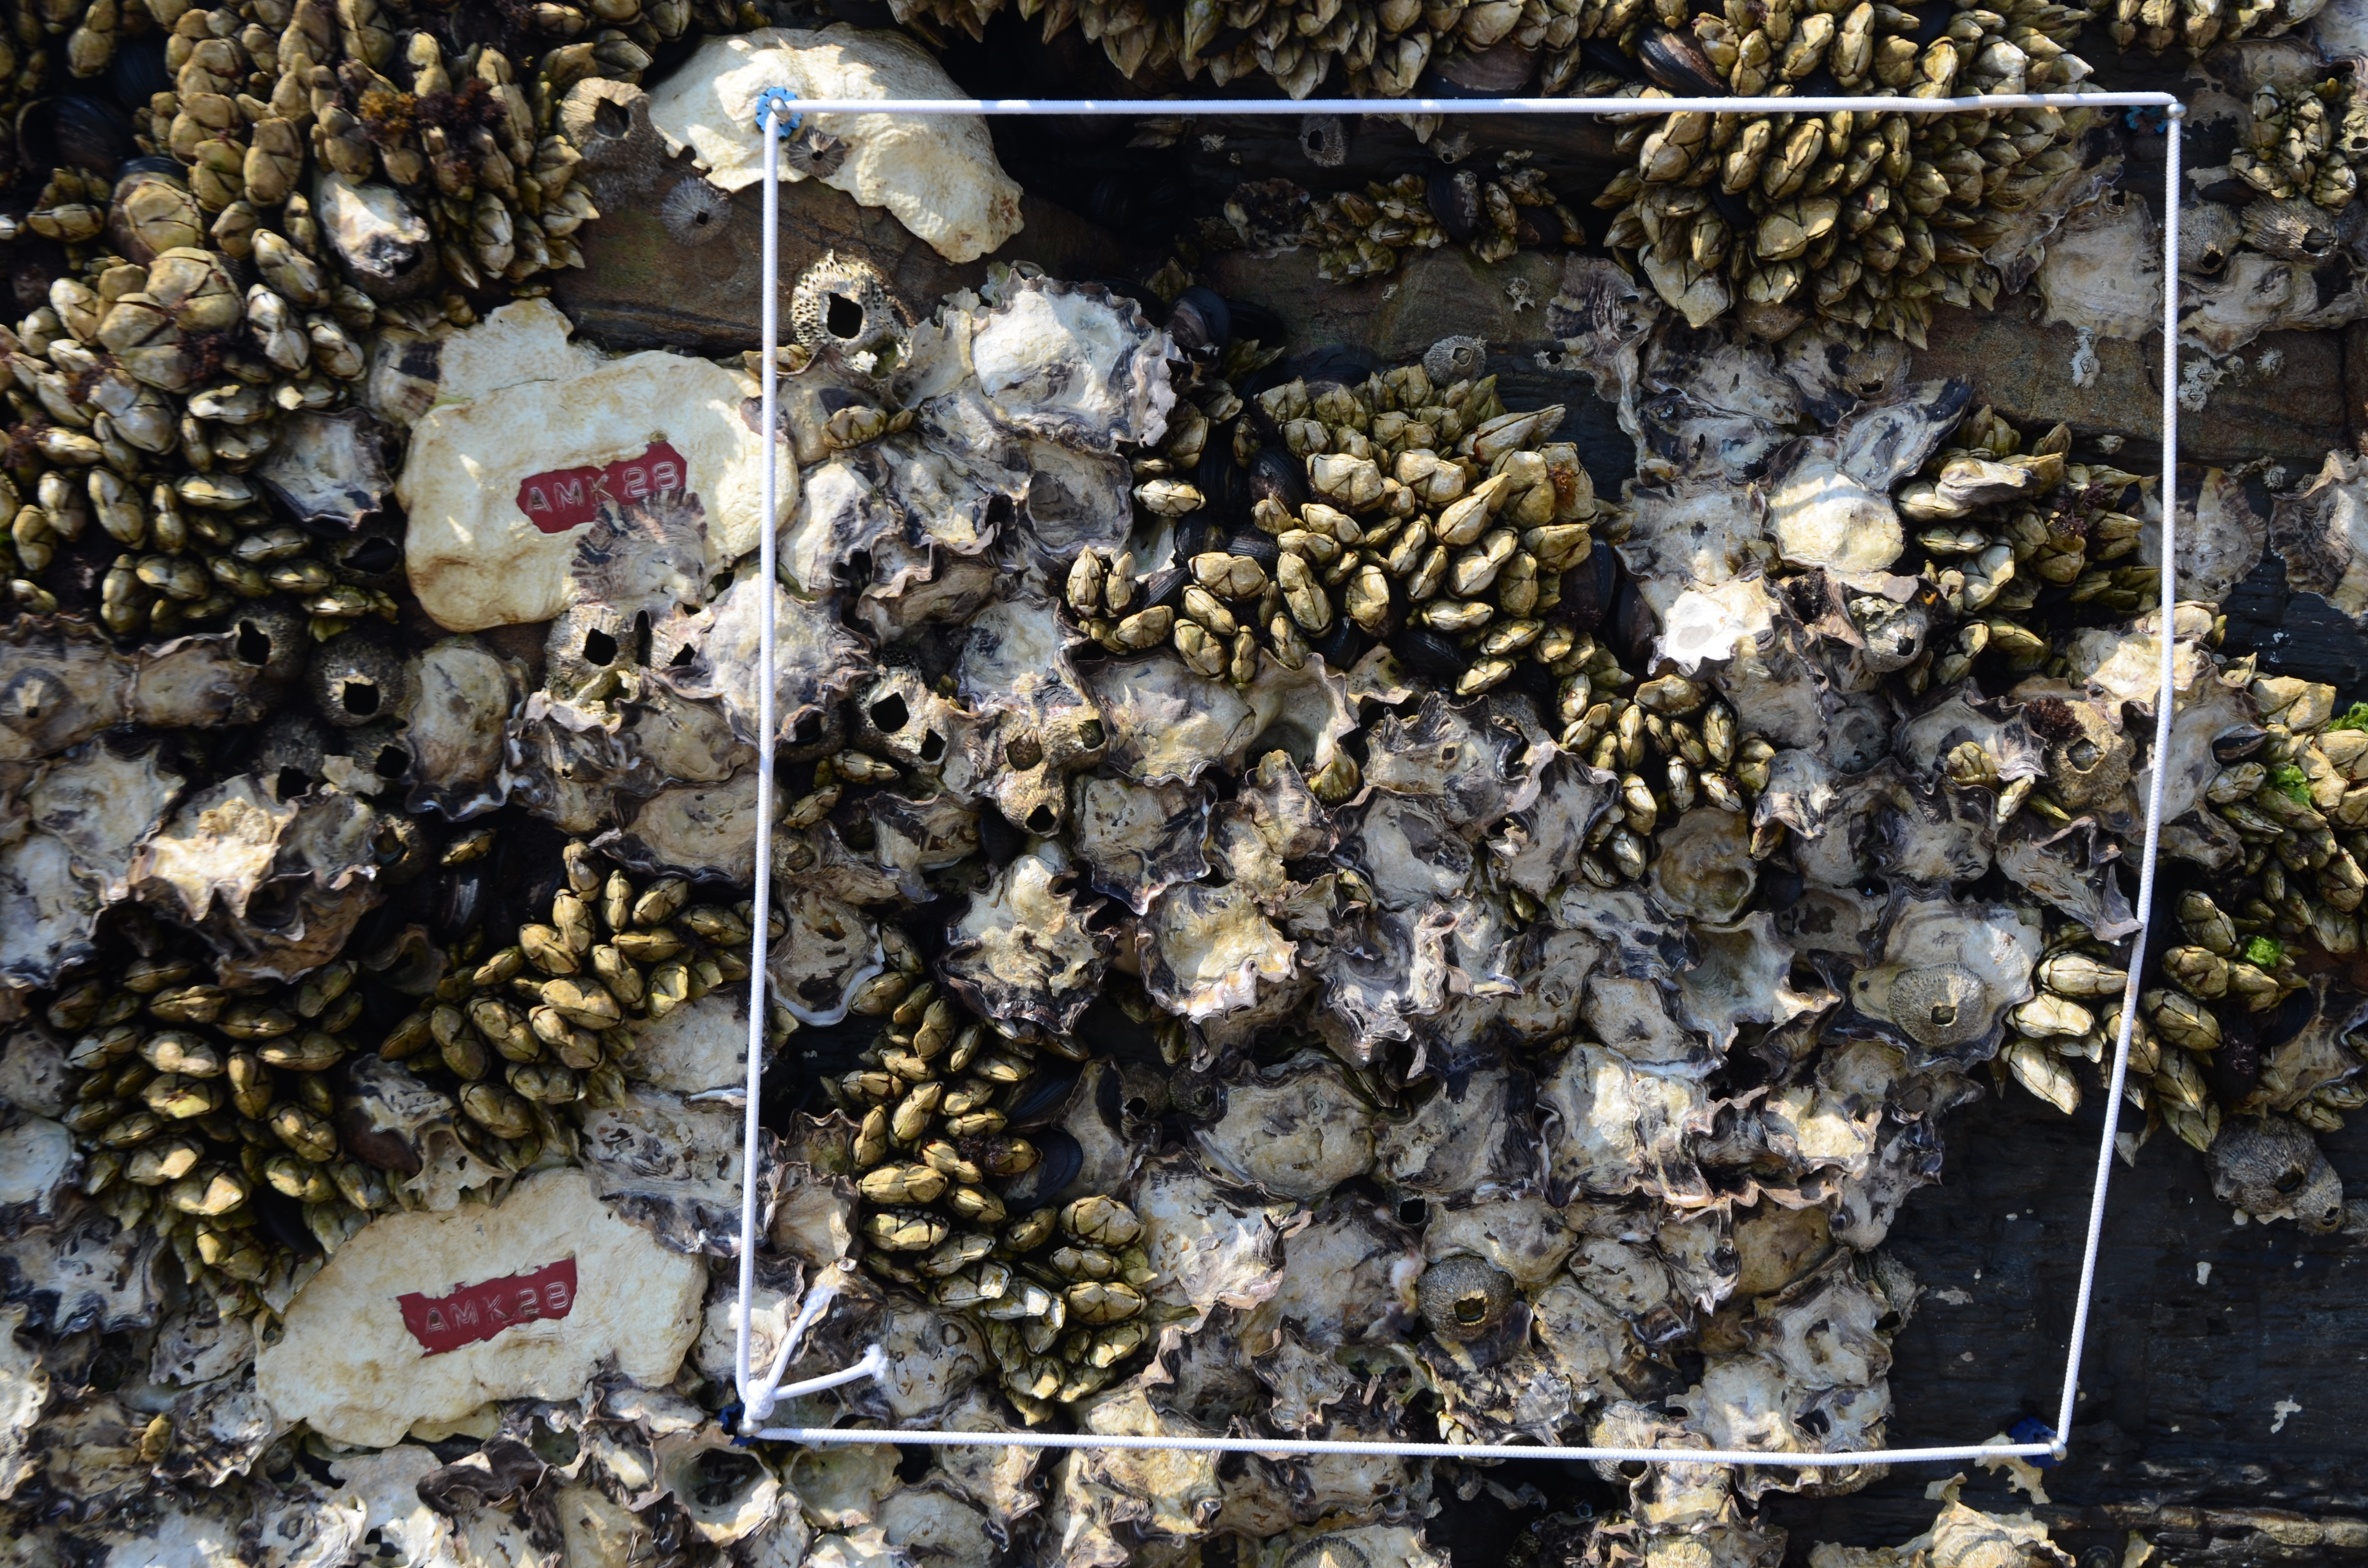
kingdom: Animalia
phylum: Arthropoda
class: Maxillopoda
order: Sessilia
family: Chthamalidae
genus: Chthamalus
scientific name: Chthamalus challengeri
